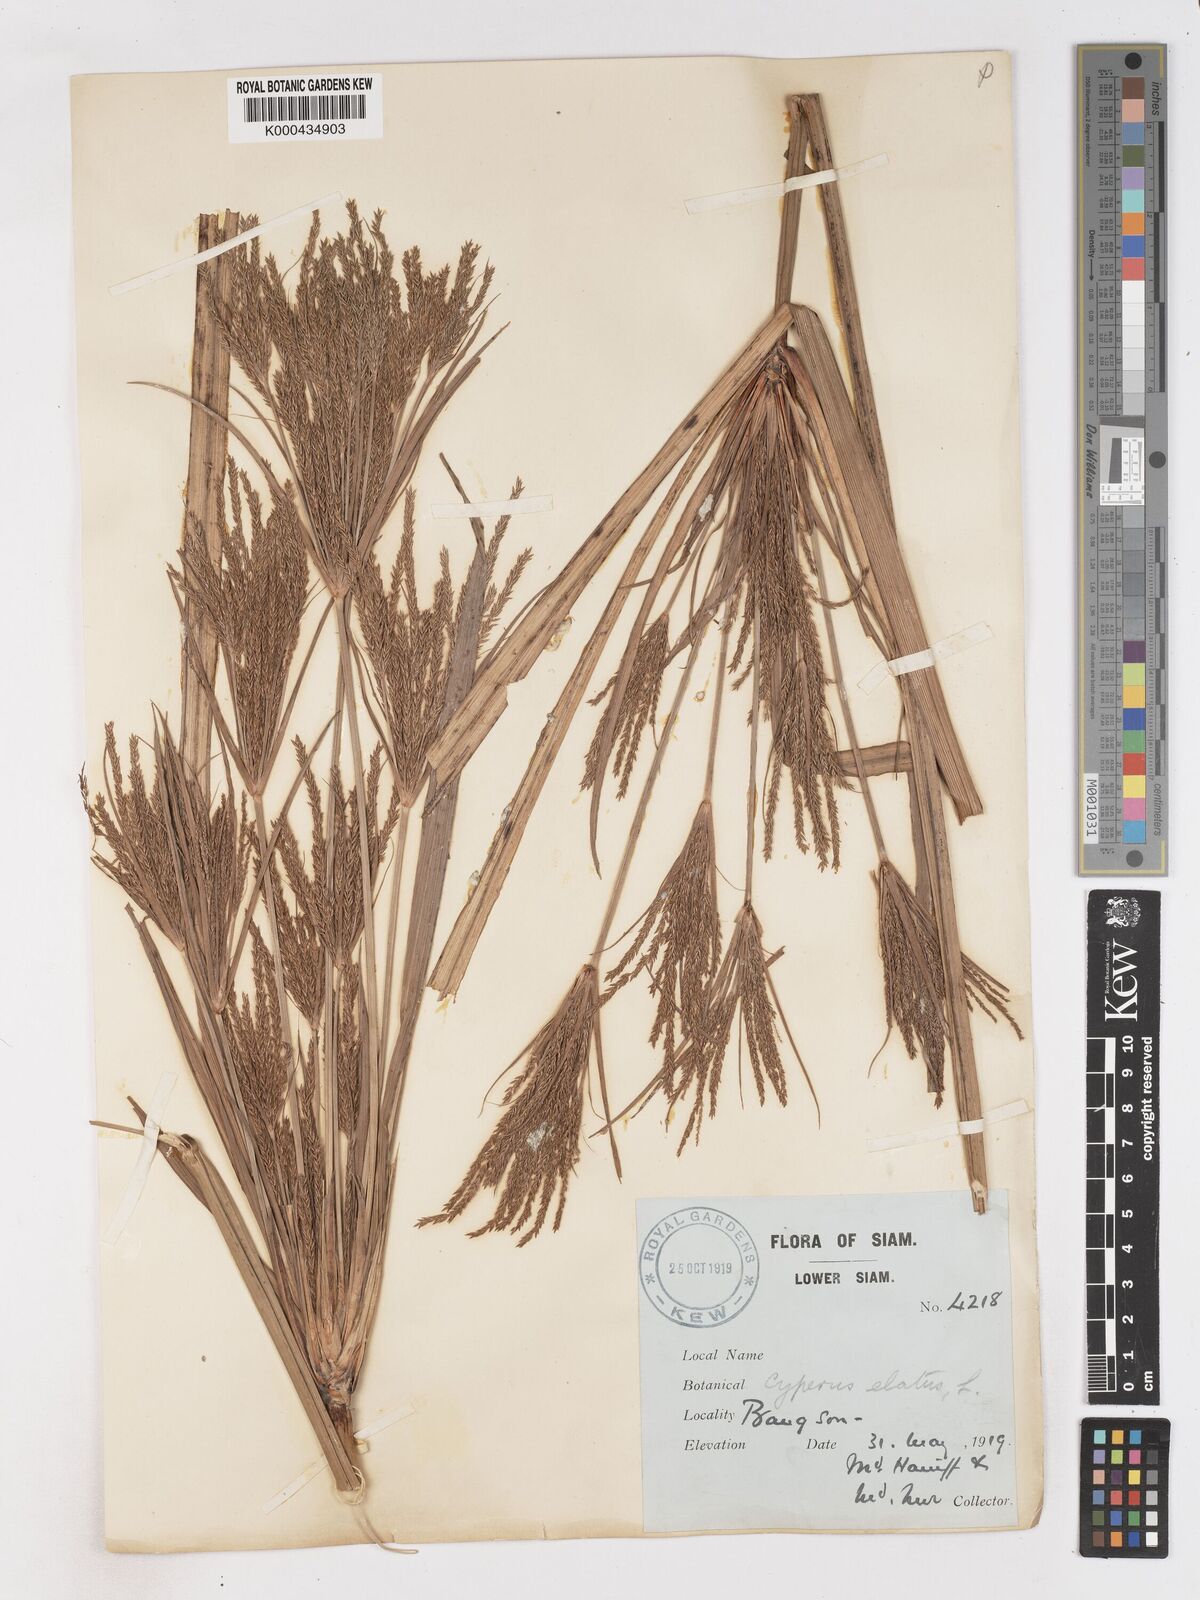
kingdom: Plantae
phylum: Tracheophyta
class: Liliopsida
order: Poales
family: Cyperaceae
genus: Cyperus
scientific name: Cyperus elatus
